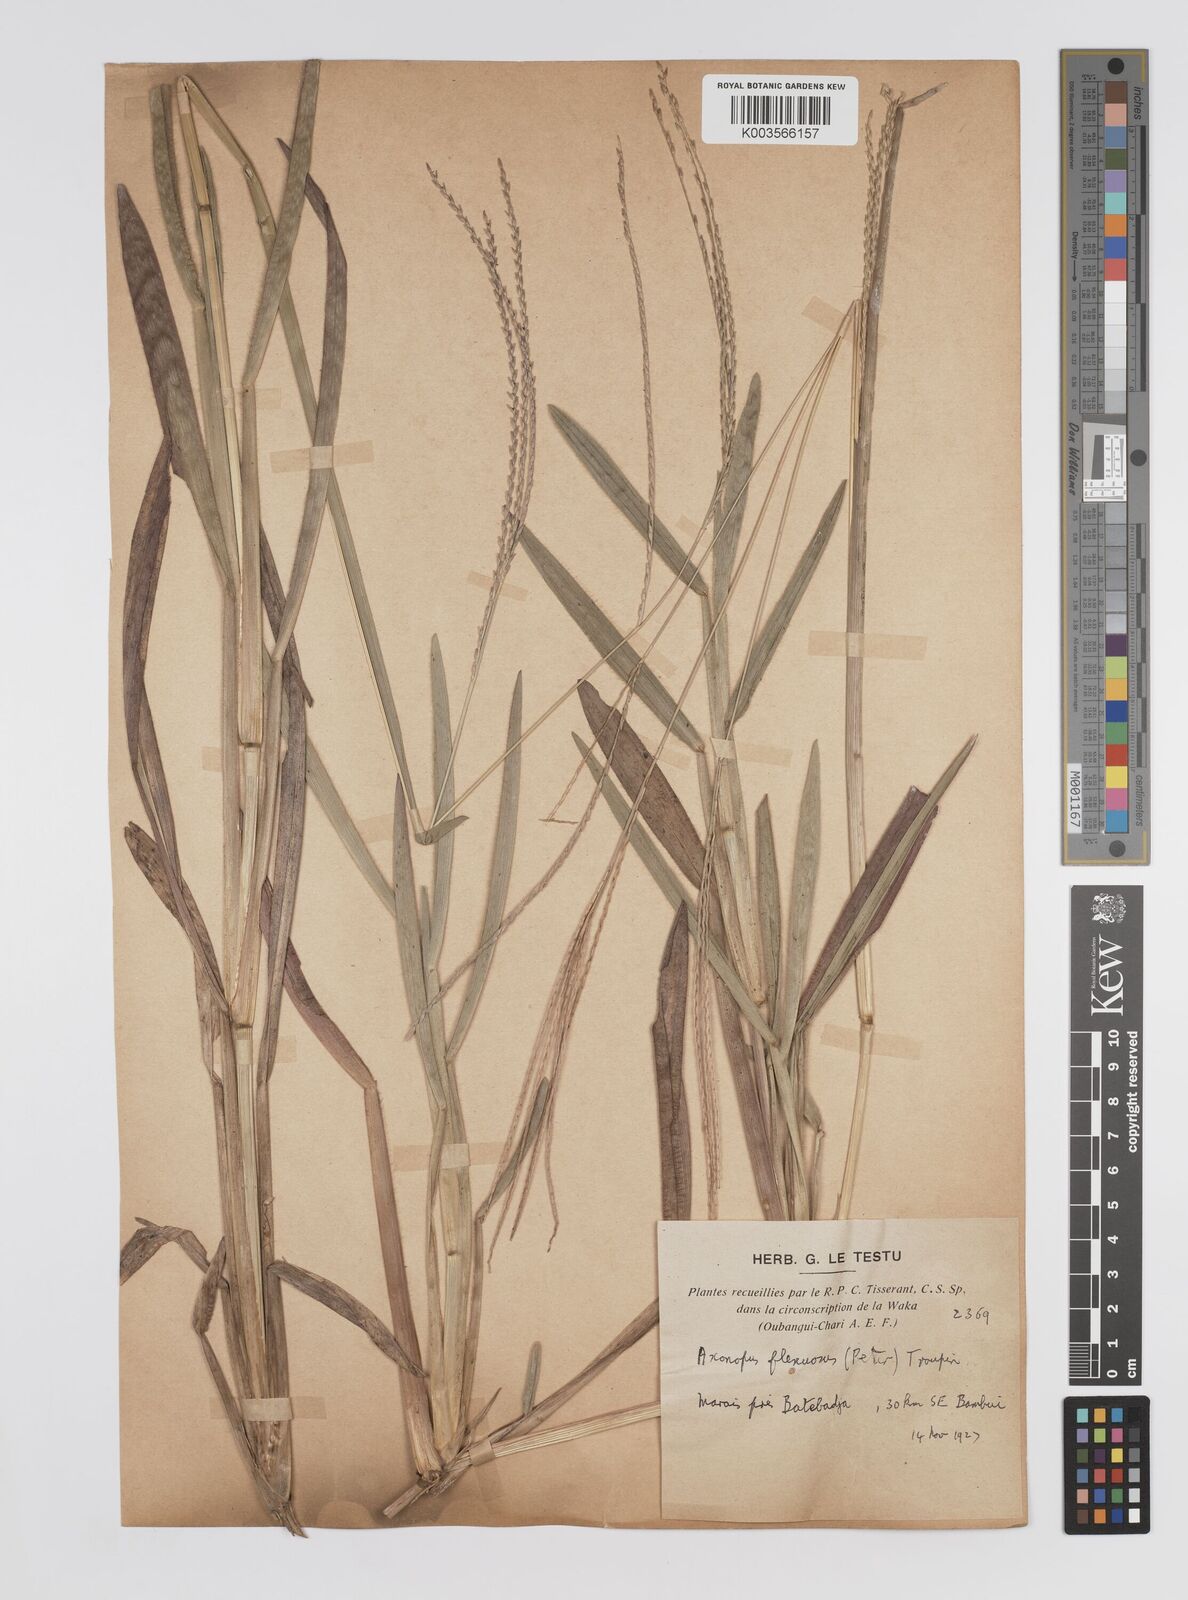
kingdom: Plantae
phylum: Tracheophyta
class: Liliopsida
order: Poales
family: Poaceae
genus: Axonopus
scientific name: Axonopus flexuosus
